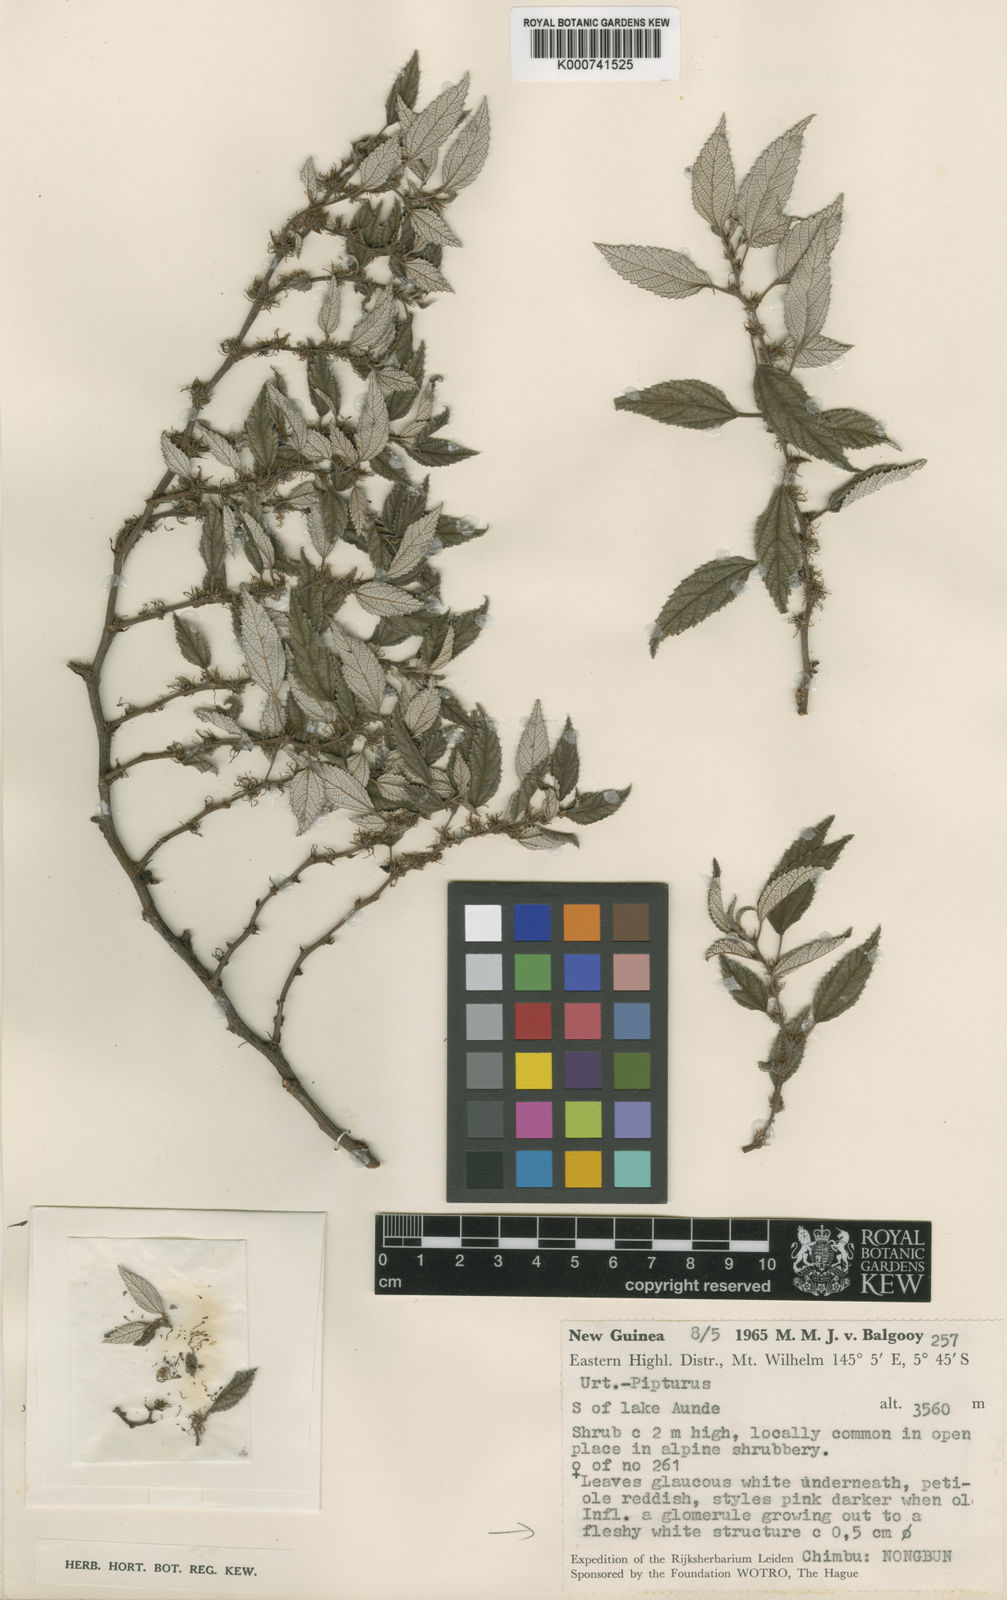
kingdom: Plantae
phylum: Tracheophyta
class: Magnoliopsida
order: Rosales
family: Urticaceae
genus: Pipturus
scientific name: Pipturus montanus
